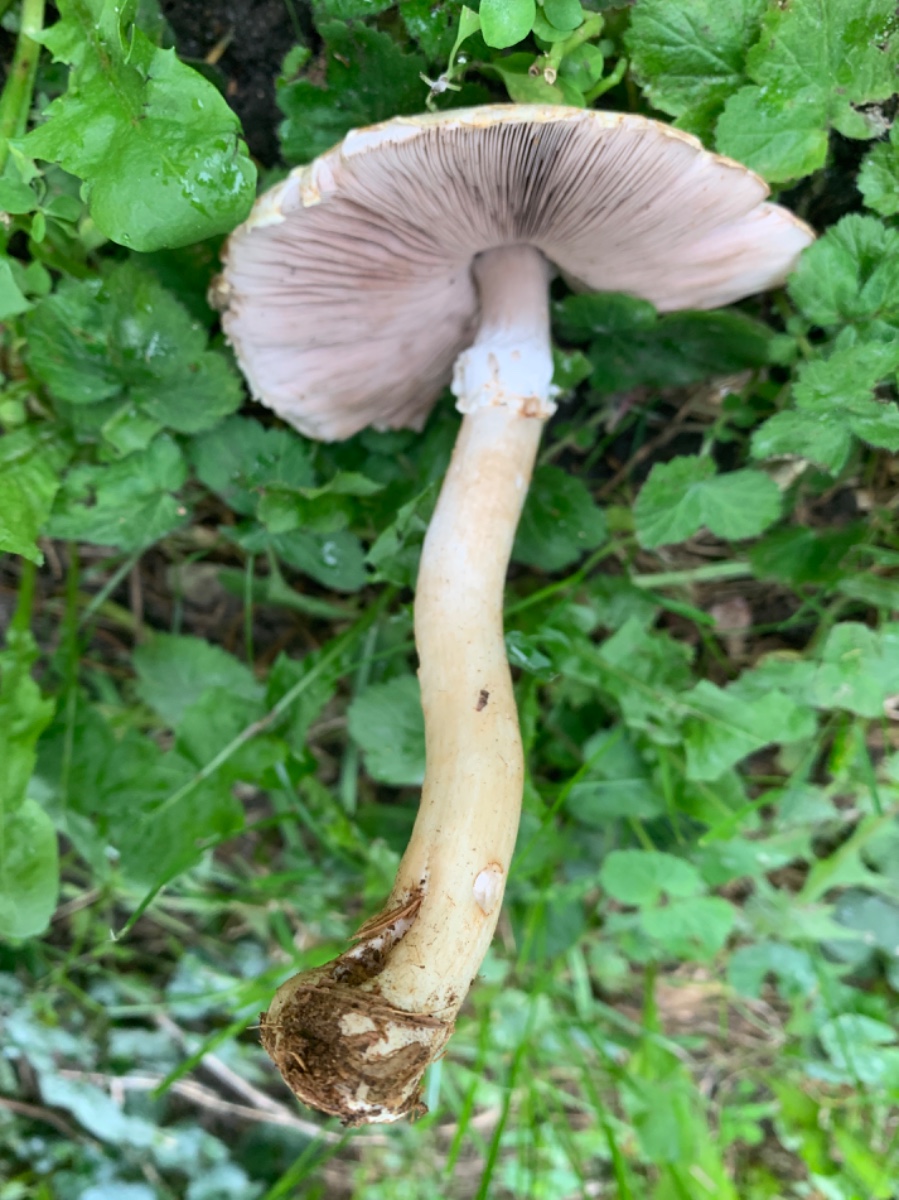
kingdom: Fungi
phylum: Basidiomycota
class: Agaricomycetes
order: Agaricales
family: Agaricaceae
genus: Agaricus
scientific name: Agaricus sylvicola
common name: skiveknoldet champignon
